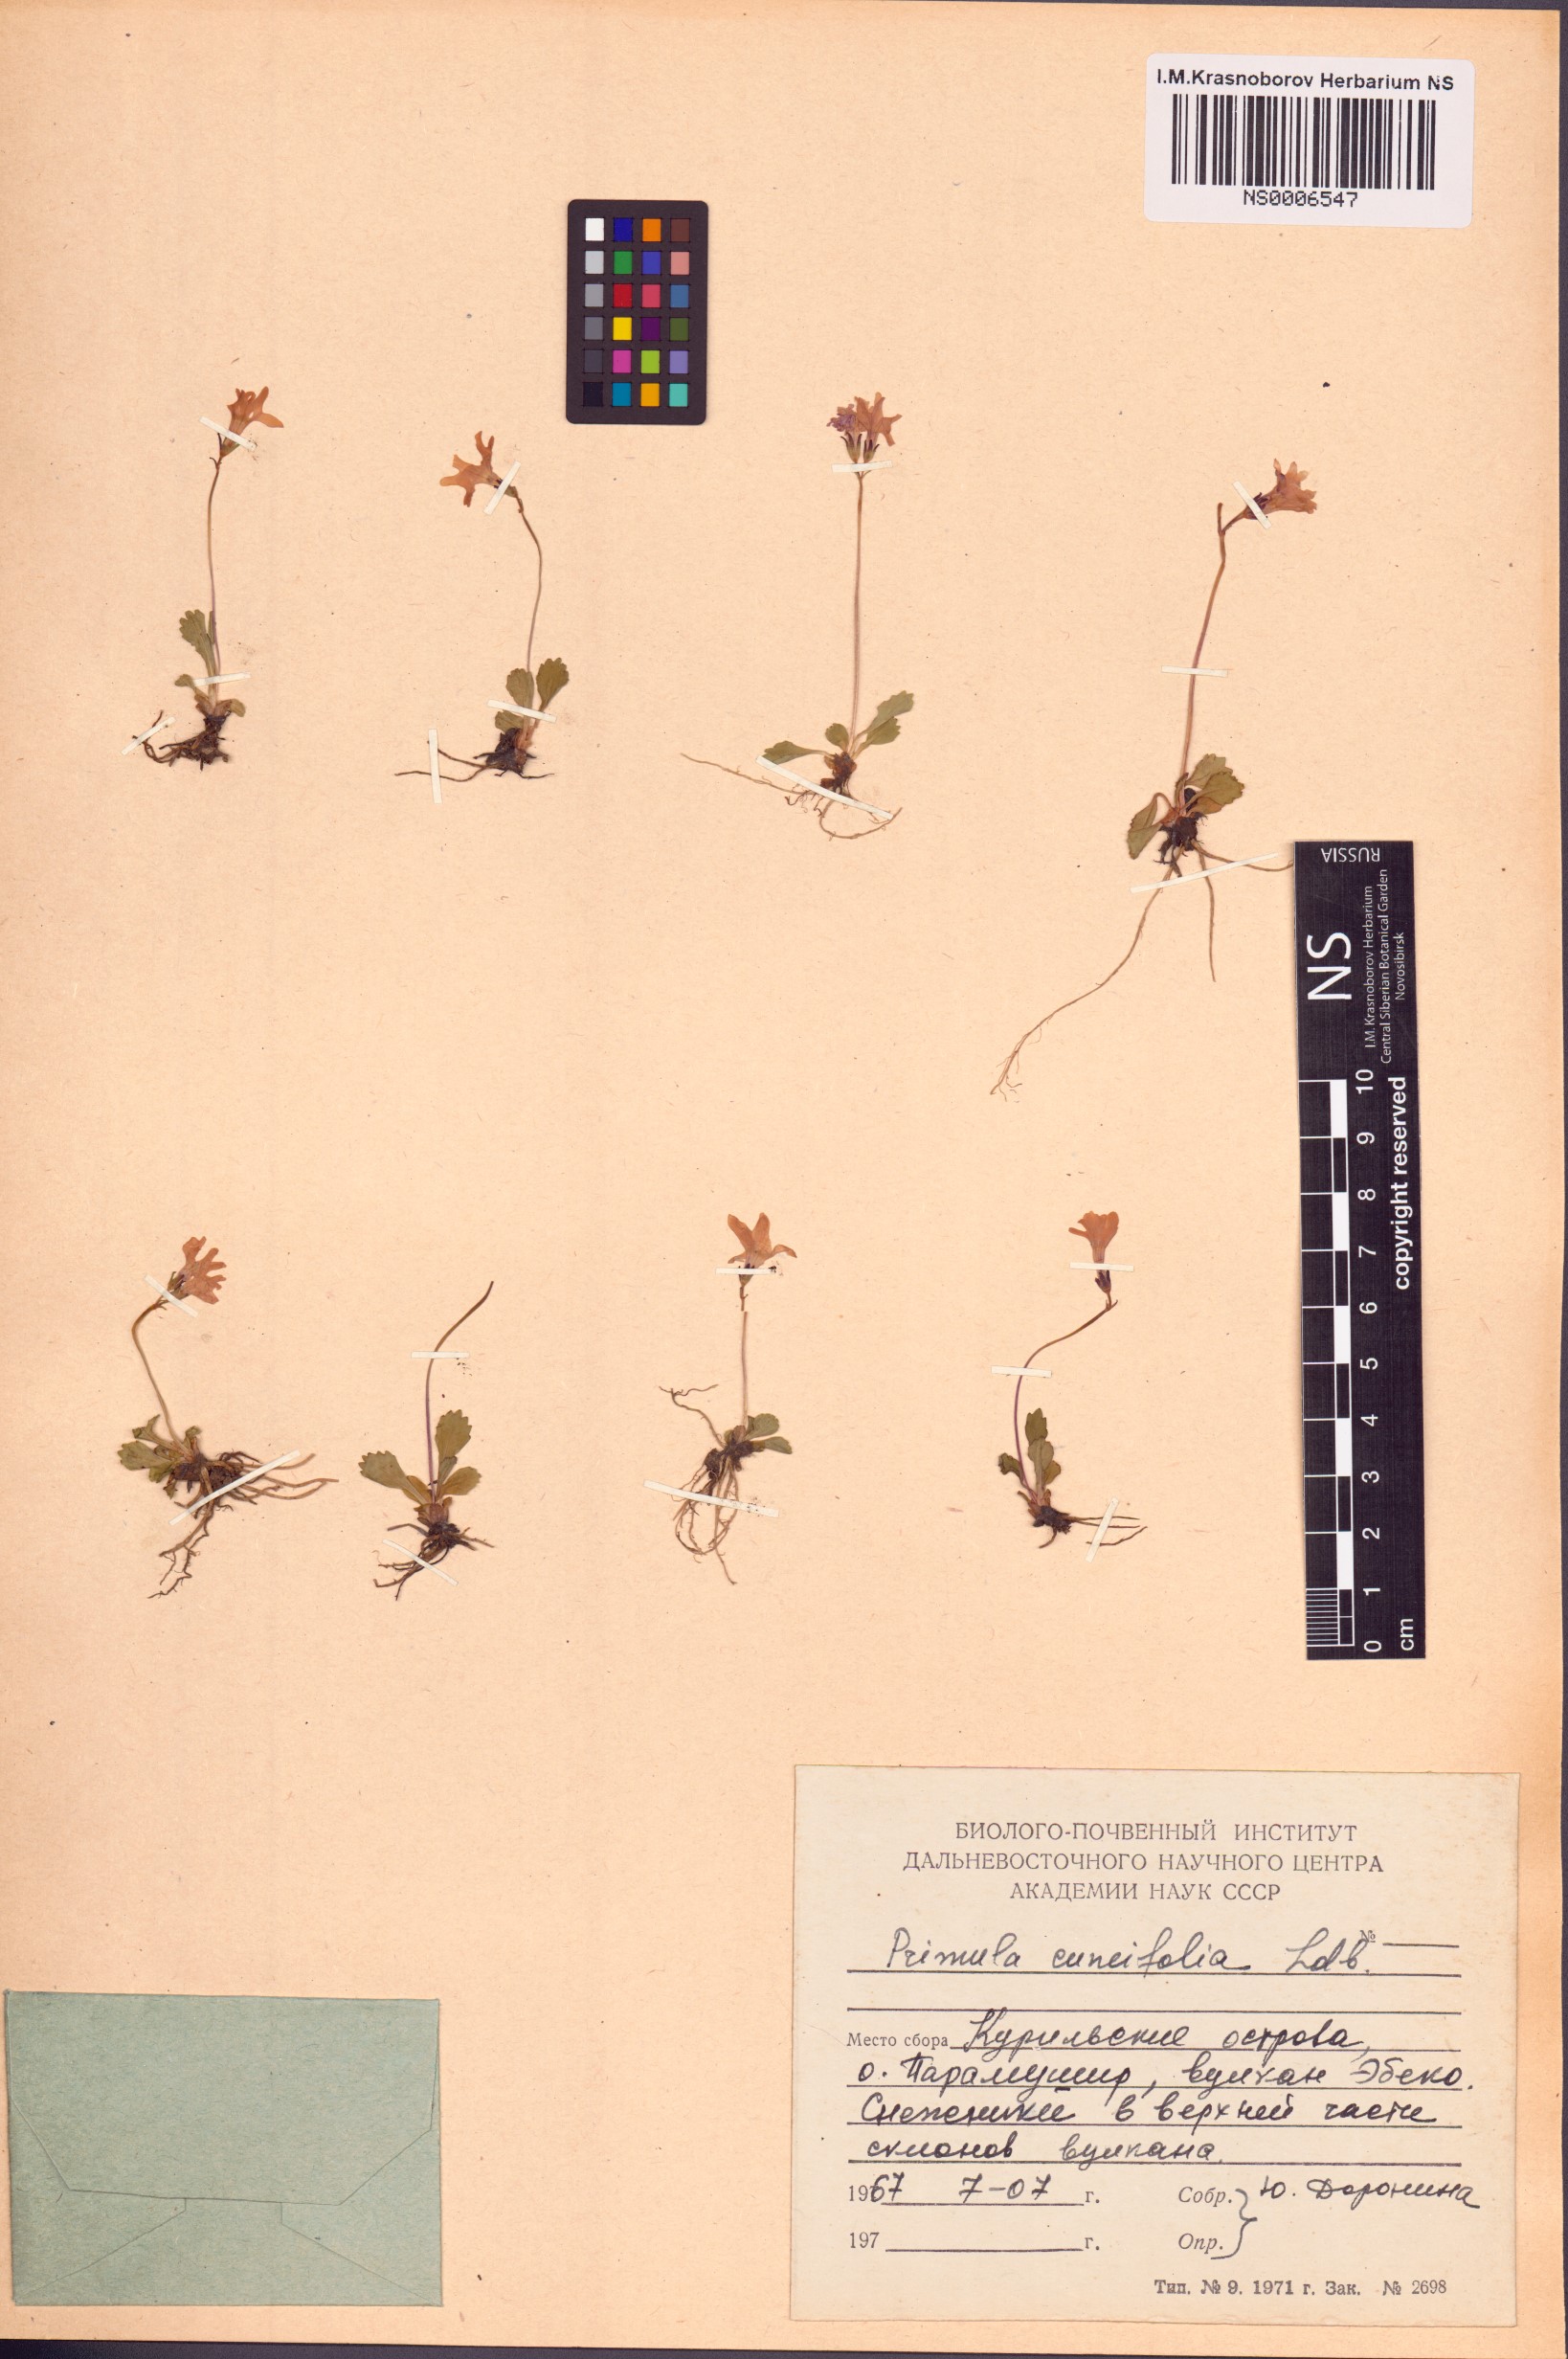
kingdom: Plantae
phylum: Tracheophyta
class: Magnoliopsida
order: Ericales
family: Primulaceae
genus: Primula
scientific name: Primula cuneifolia
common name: Wedge-leaved primrose
